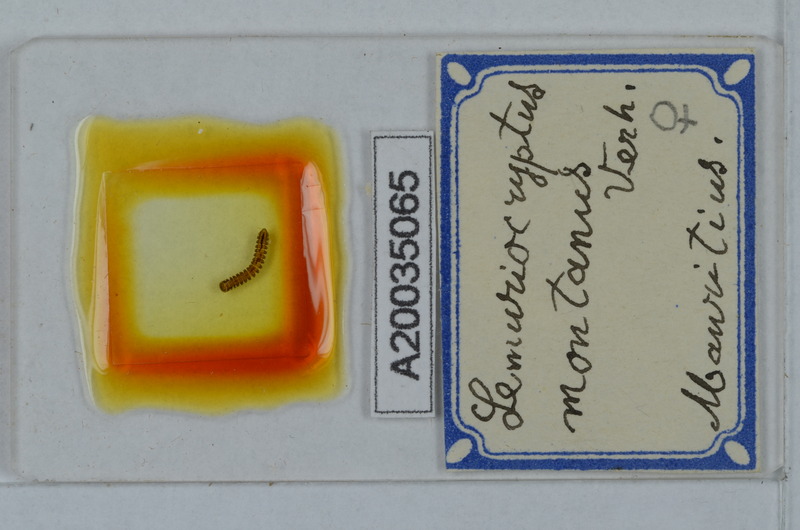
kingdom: Animalia
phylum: Arthropoda
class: Diplopoda
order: Polydesmida
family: Pyrgodesmidae
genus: Lemuriocryptus
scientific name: Lemuriocryptus montanus
